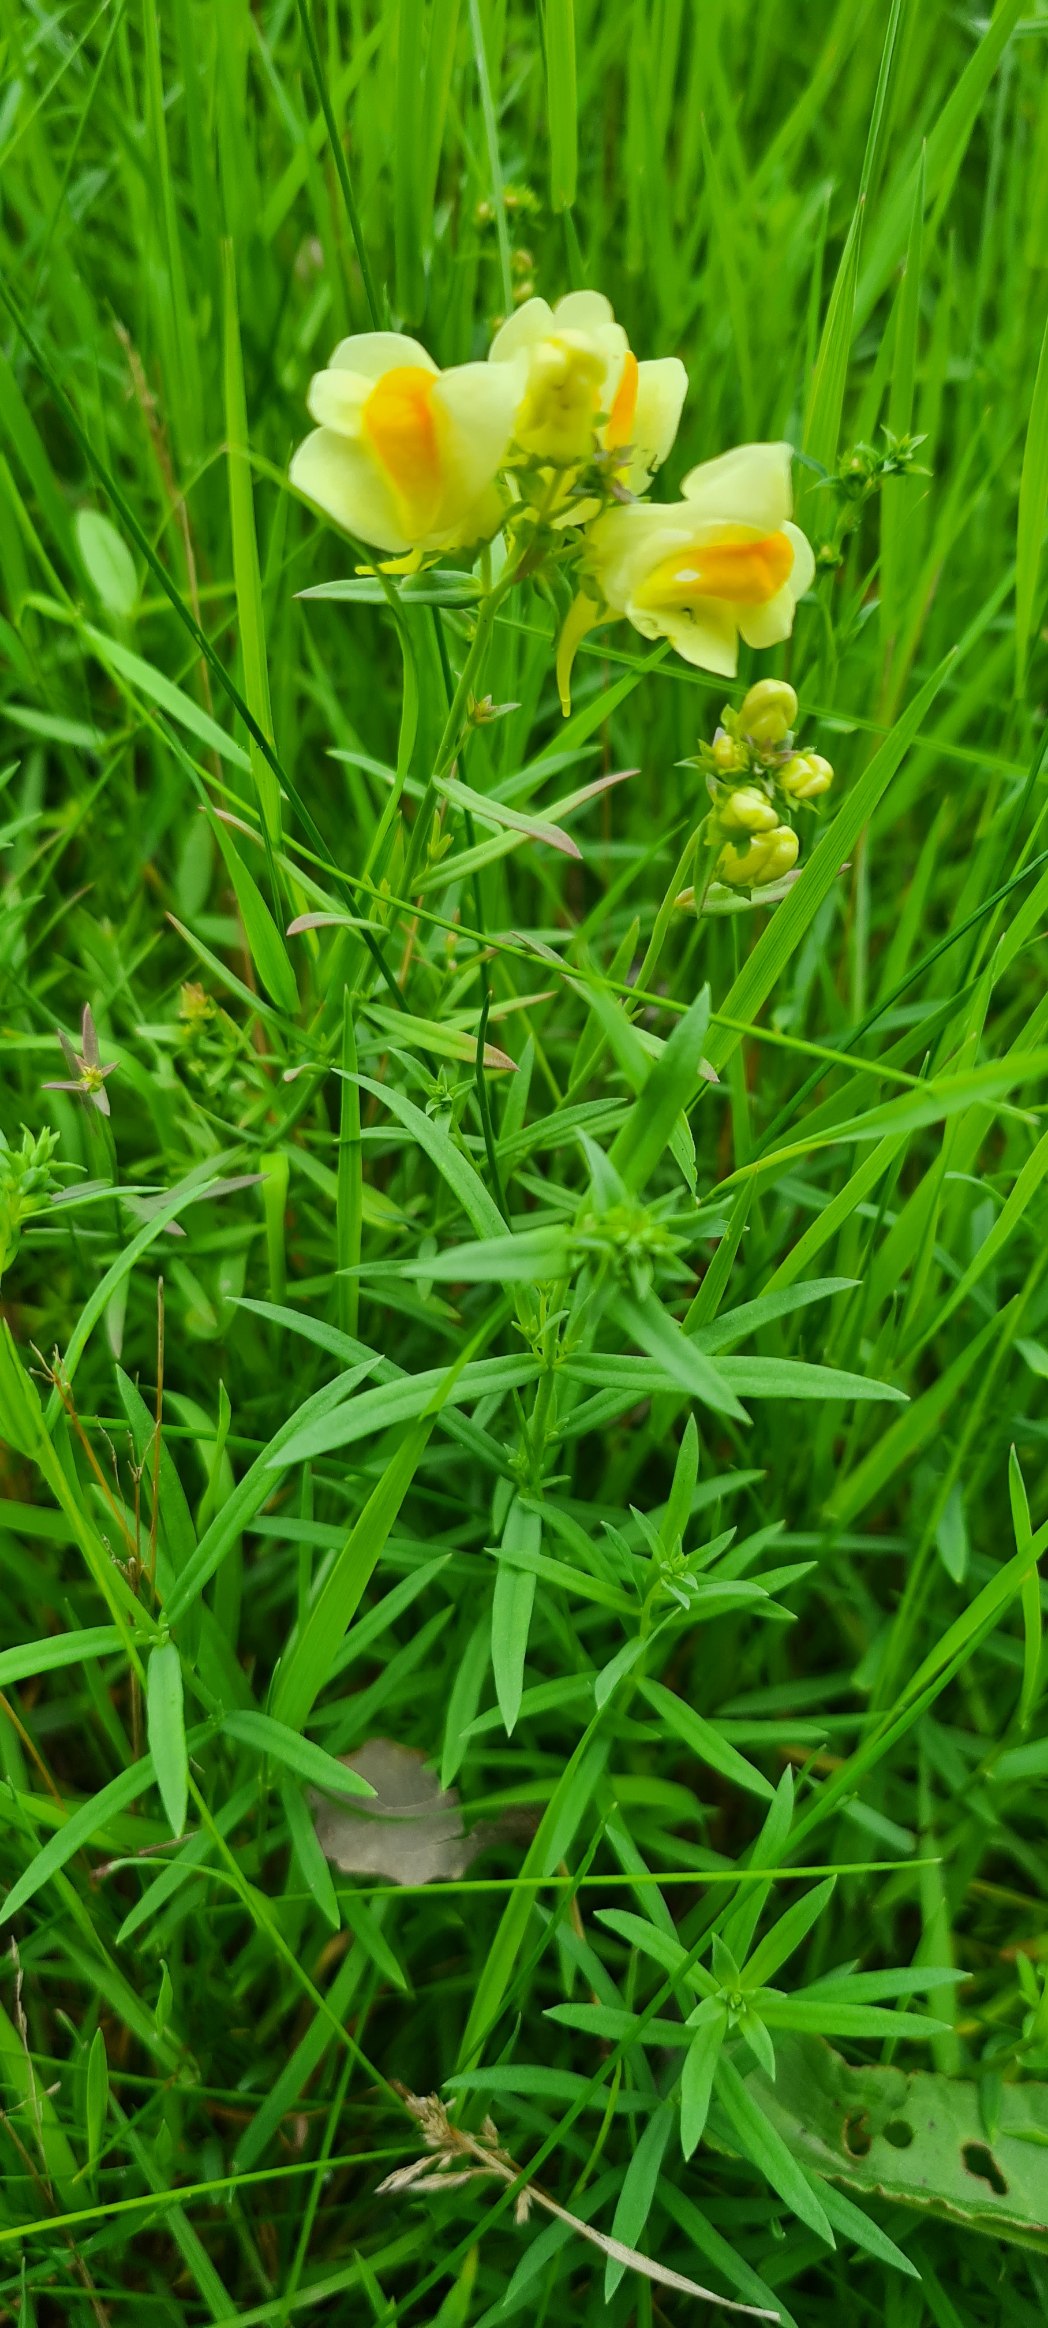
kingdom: Plantae
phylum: Tracheophyta
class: Magnoliopsida
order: Lamiales
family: Plantaginaceae
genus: Linaria
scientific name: Linaria vulgaris
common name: Almindelig torskemund
